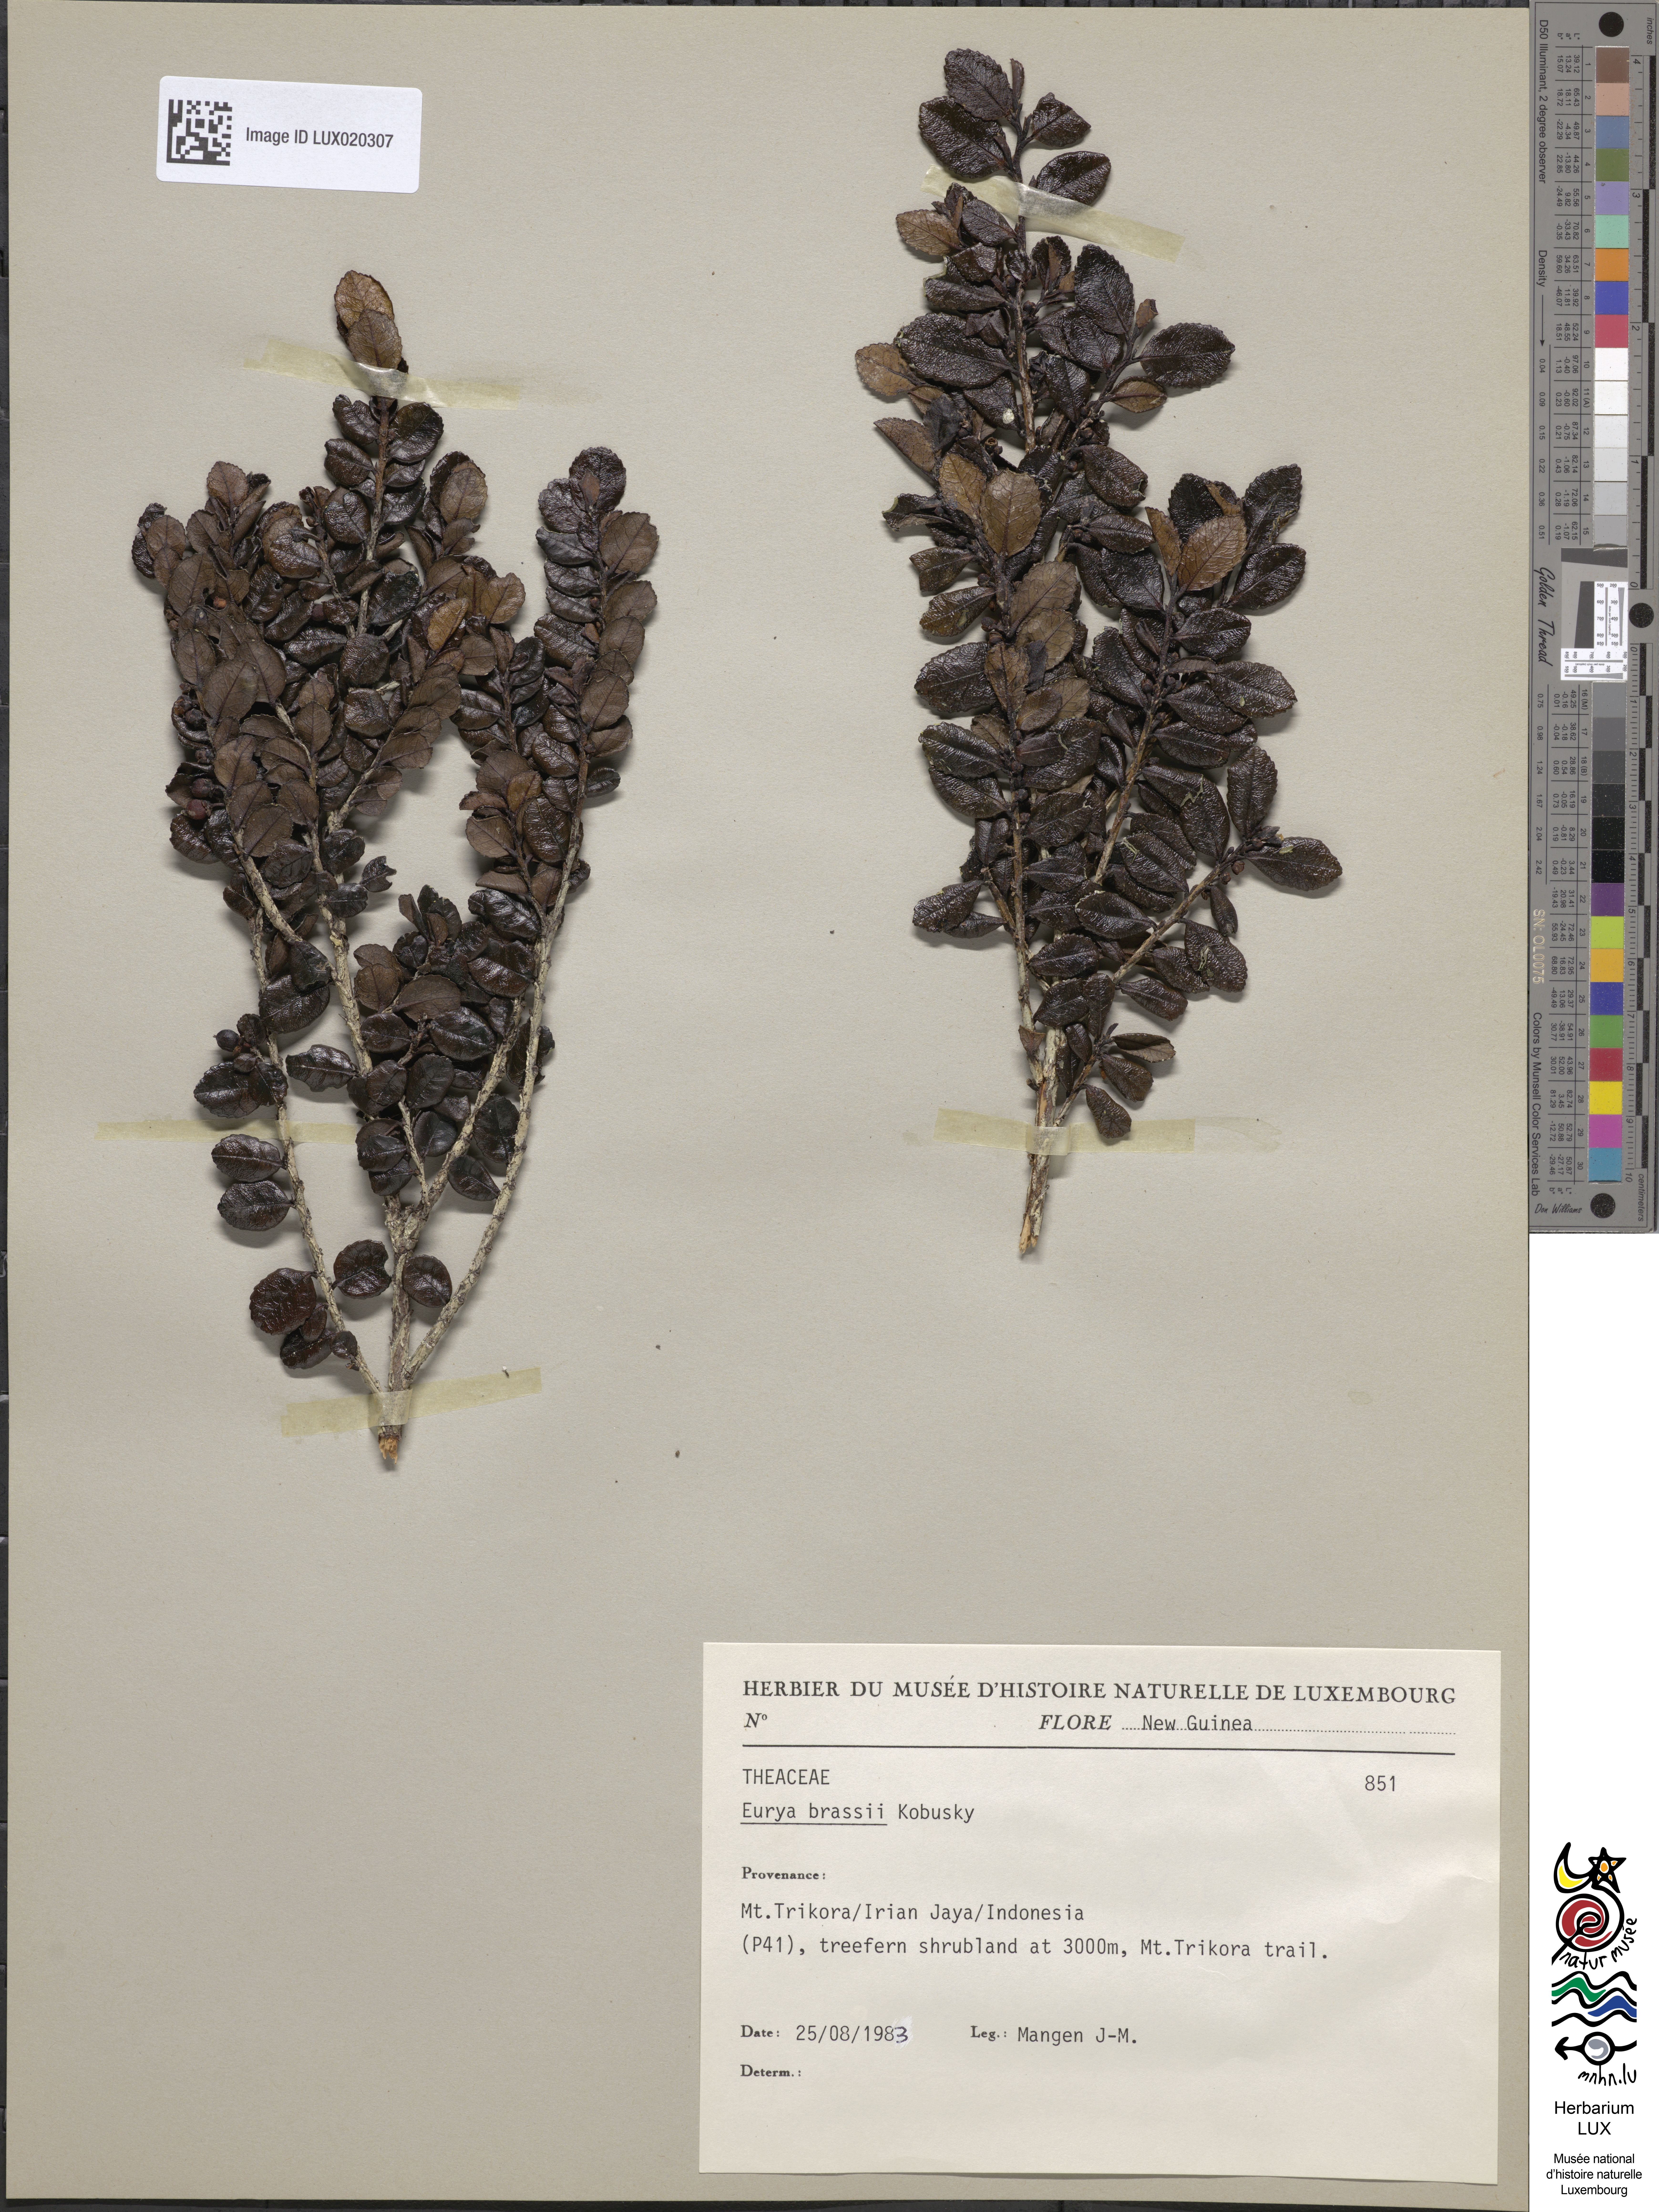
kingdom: Plantae
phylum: Tracheophyta
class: Magnoliopsida
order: Ericales
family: Pentaphylacaceae
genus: Eurya
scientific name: Eurya brassii
